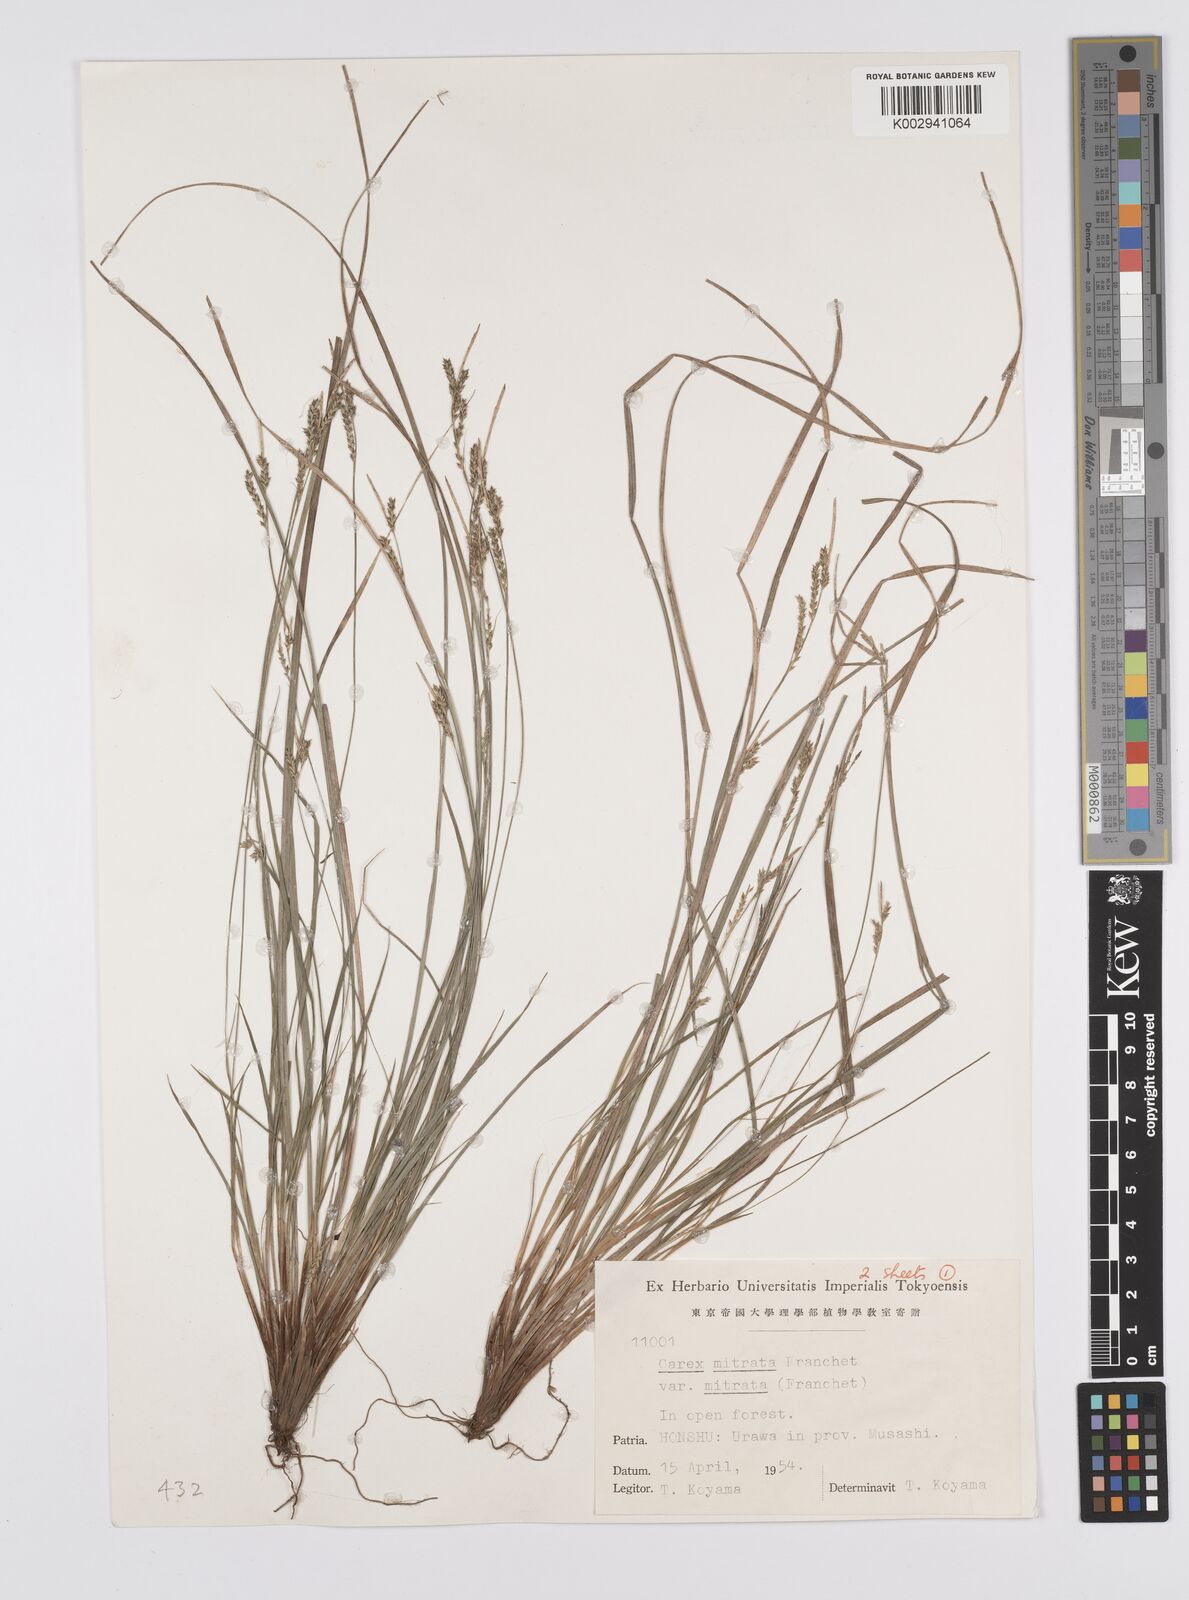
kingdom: Plantae
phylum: Tracheophyta
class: Liliopsida
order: Poales
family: Cyperaceae
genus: Carex
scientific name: Carex mitrata
